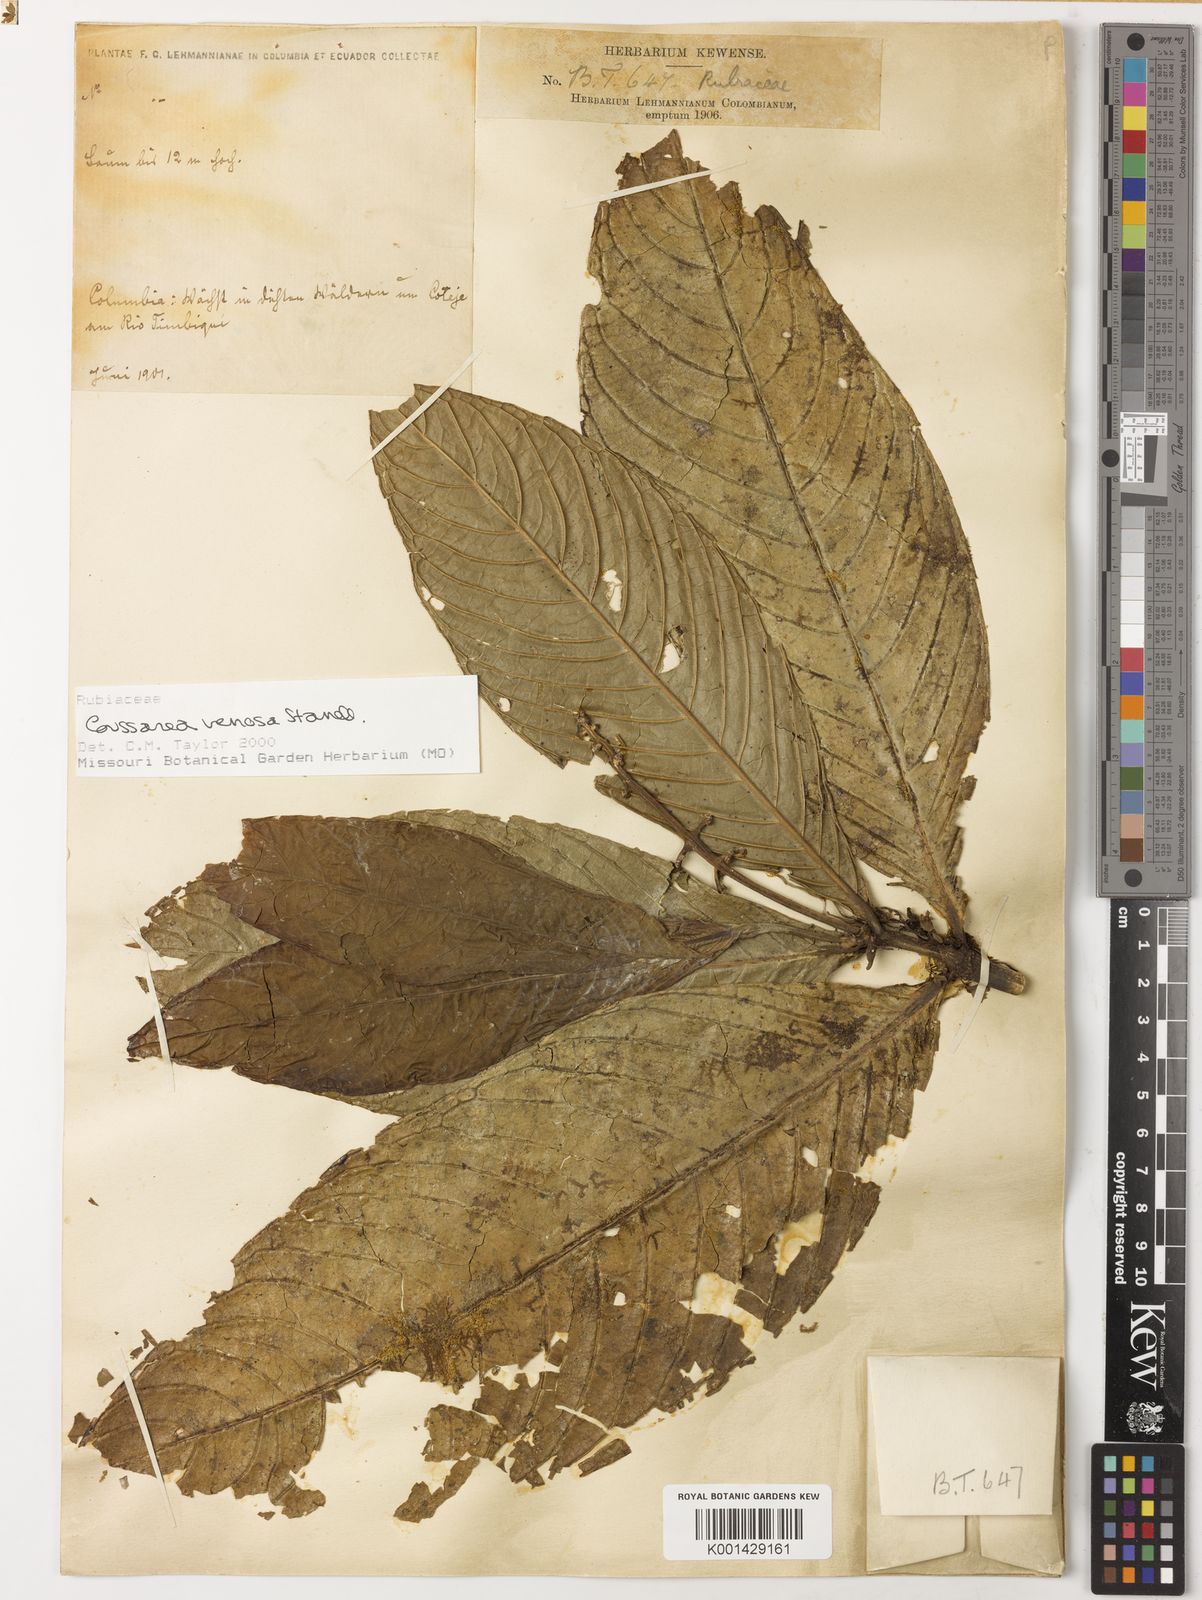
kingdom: Plantae
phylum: Tracheophyta
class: Magnoliopsida
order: Gentianales
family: Rubiaceae
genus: Coussarea
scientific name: Coussarea venosa
